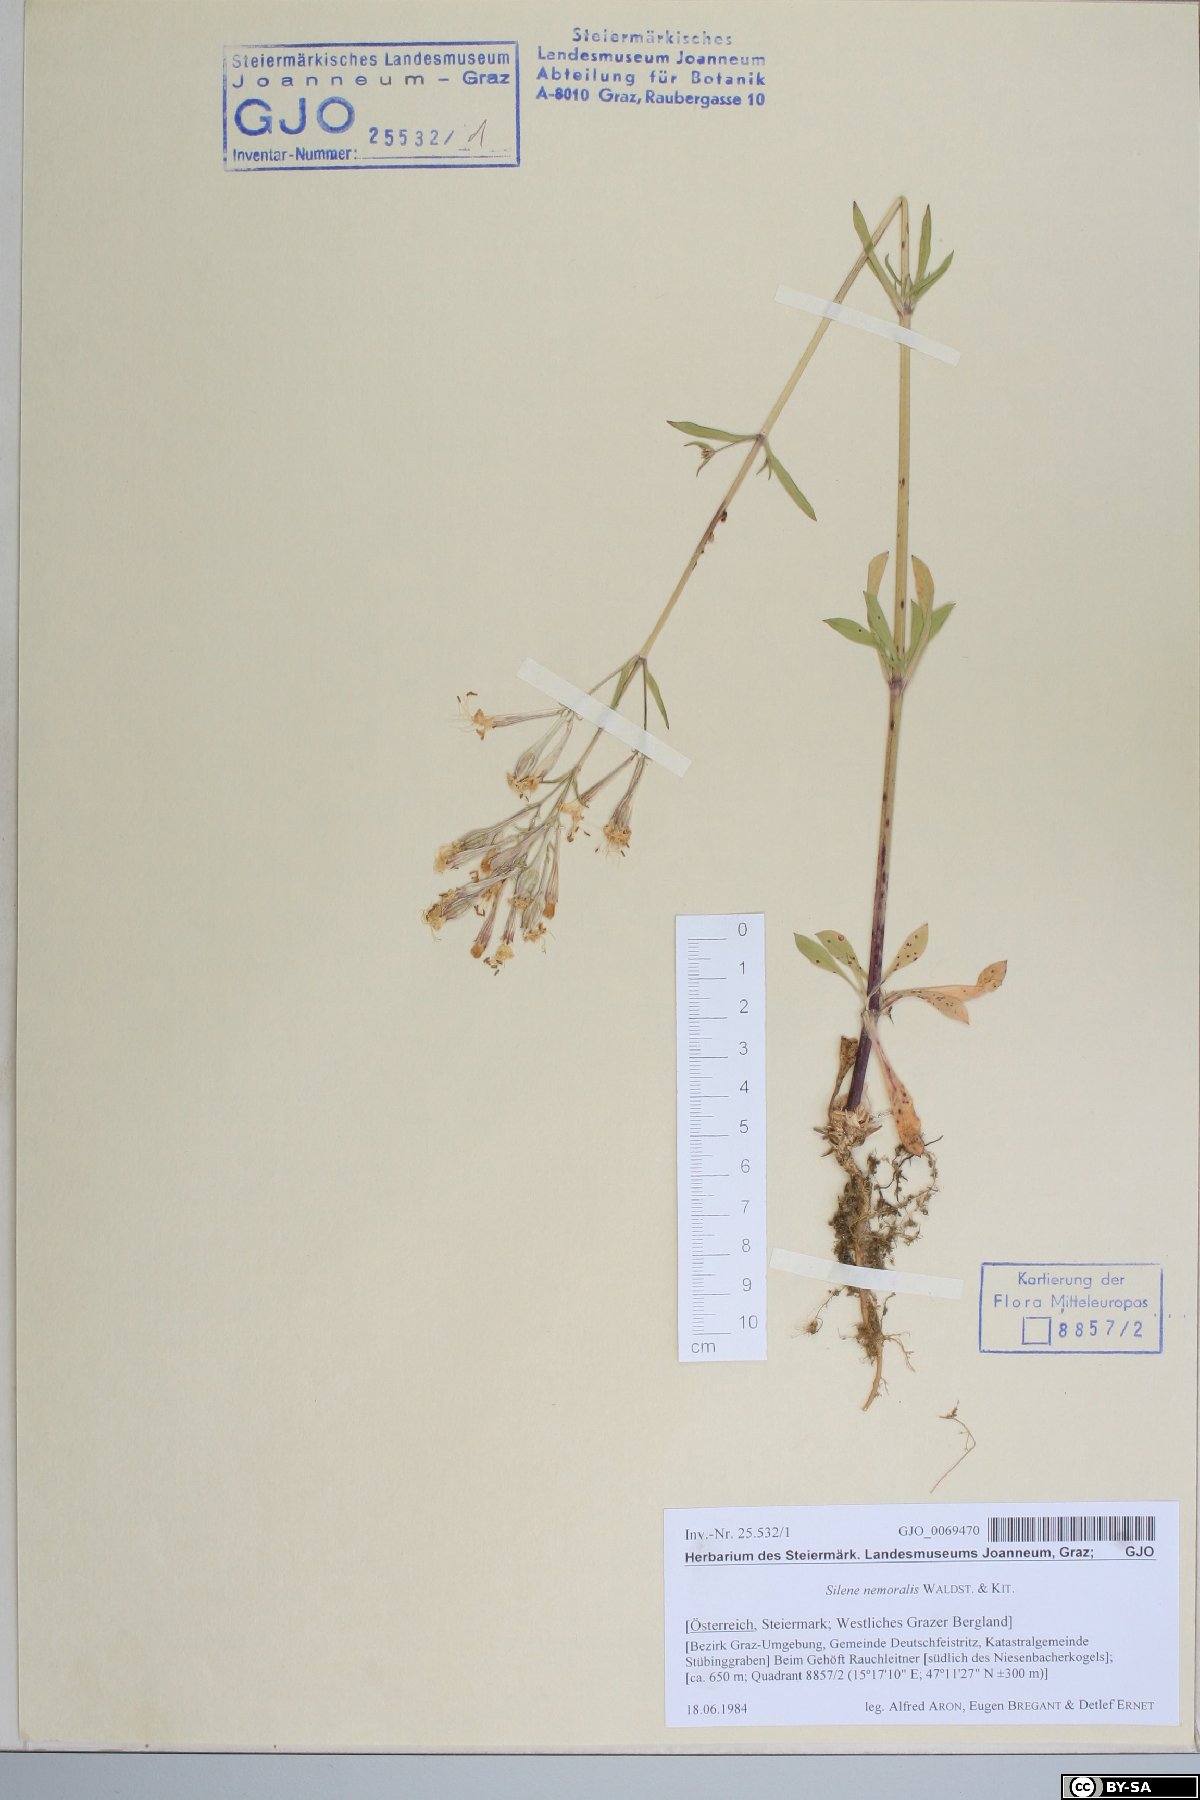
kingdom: Plantae
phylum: Tracheophyta
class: Magnoliopsida
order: Caryophyllales
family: Caryophyllaceae
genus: Silene
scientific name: Silene nemoralis
